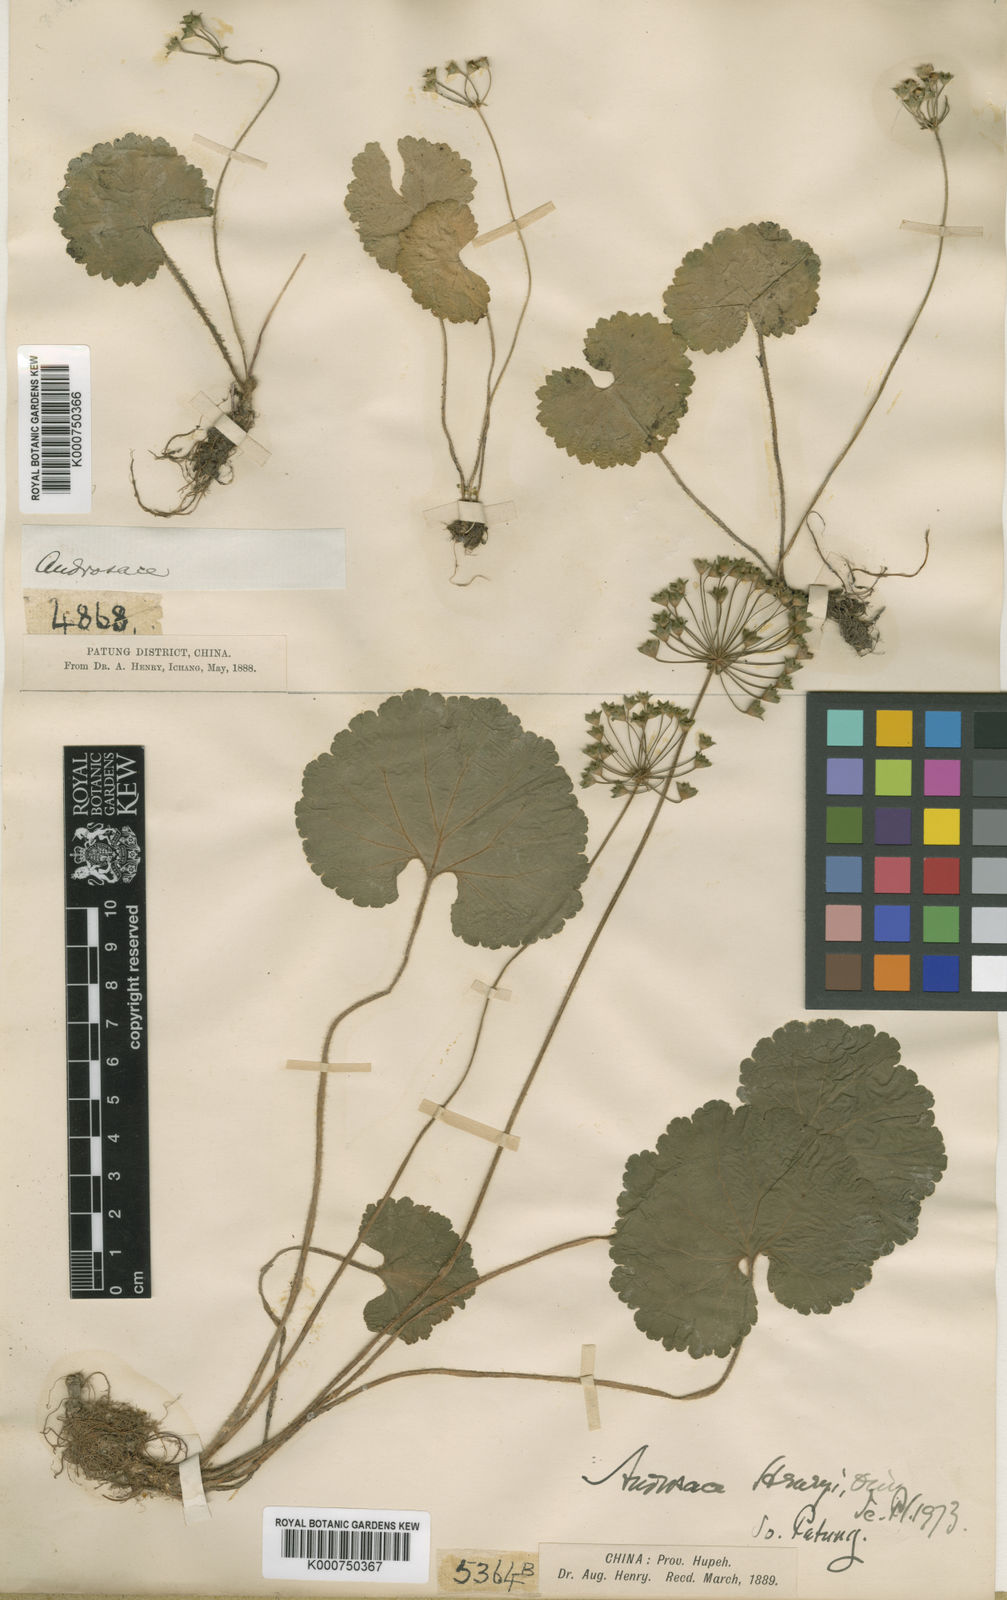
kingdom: Plantae
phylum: Tracheophyta
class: Magnoliopsida
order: Ericales
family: Primulaceae
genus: Androsace
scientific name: Androsace henryi
